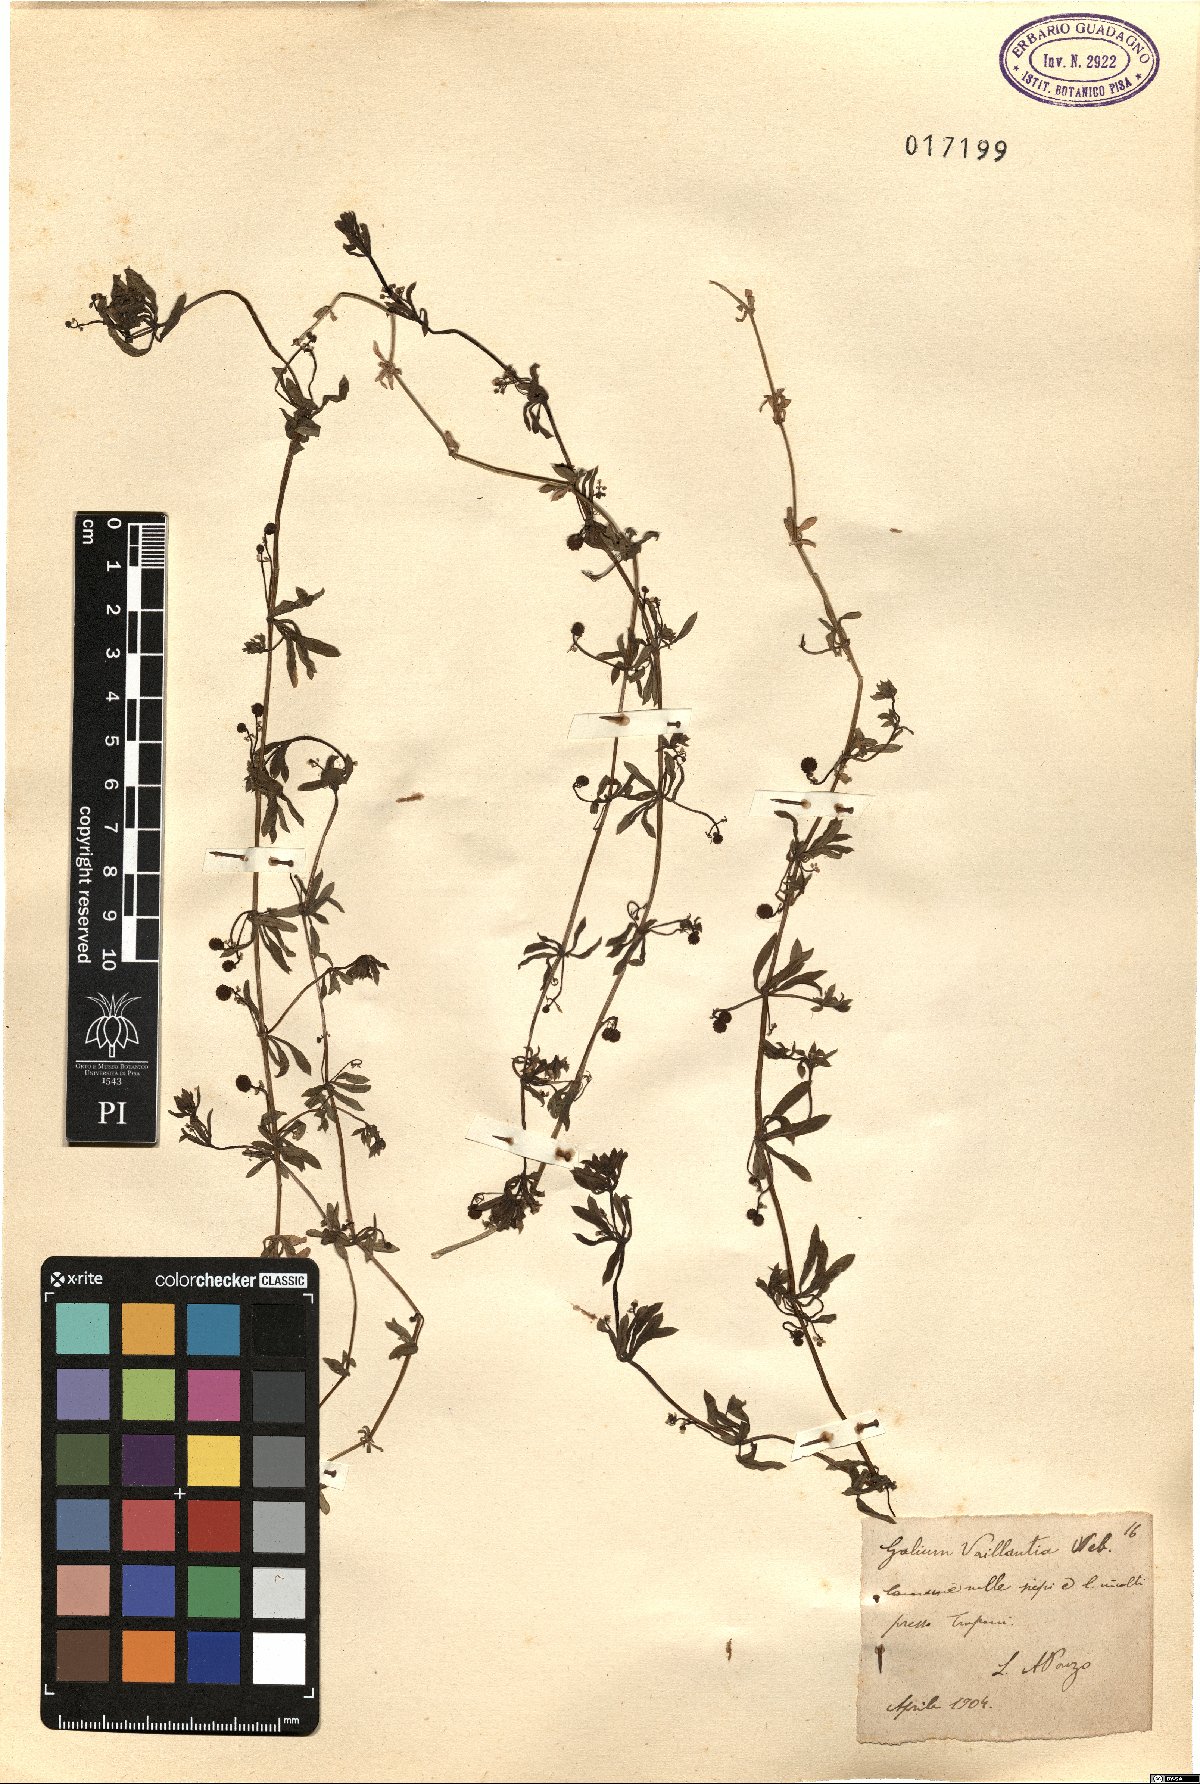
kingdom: Plantae
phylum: Tracheophyta
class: Magnoliopsida
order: Gentianales
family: Rubiaceae
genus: Galium
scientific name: Galium verrucosum
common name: Warty bedstraw
